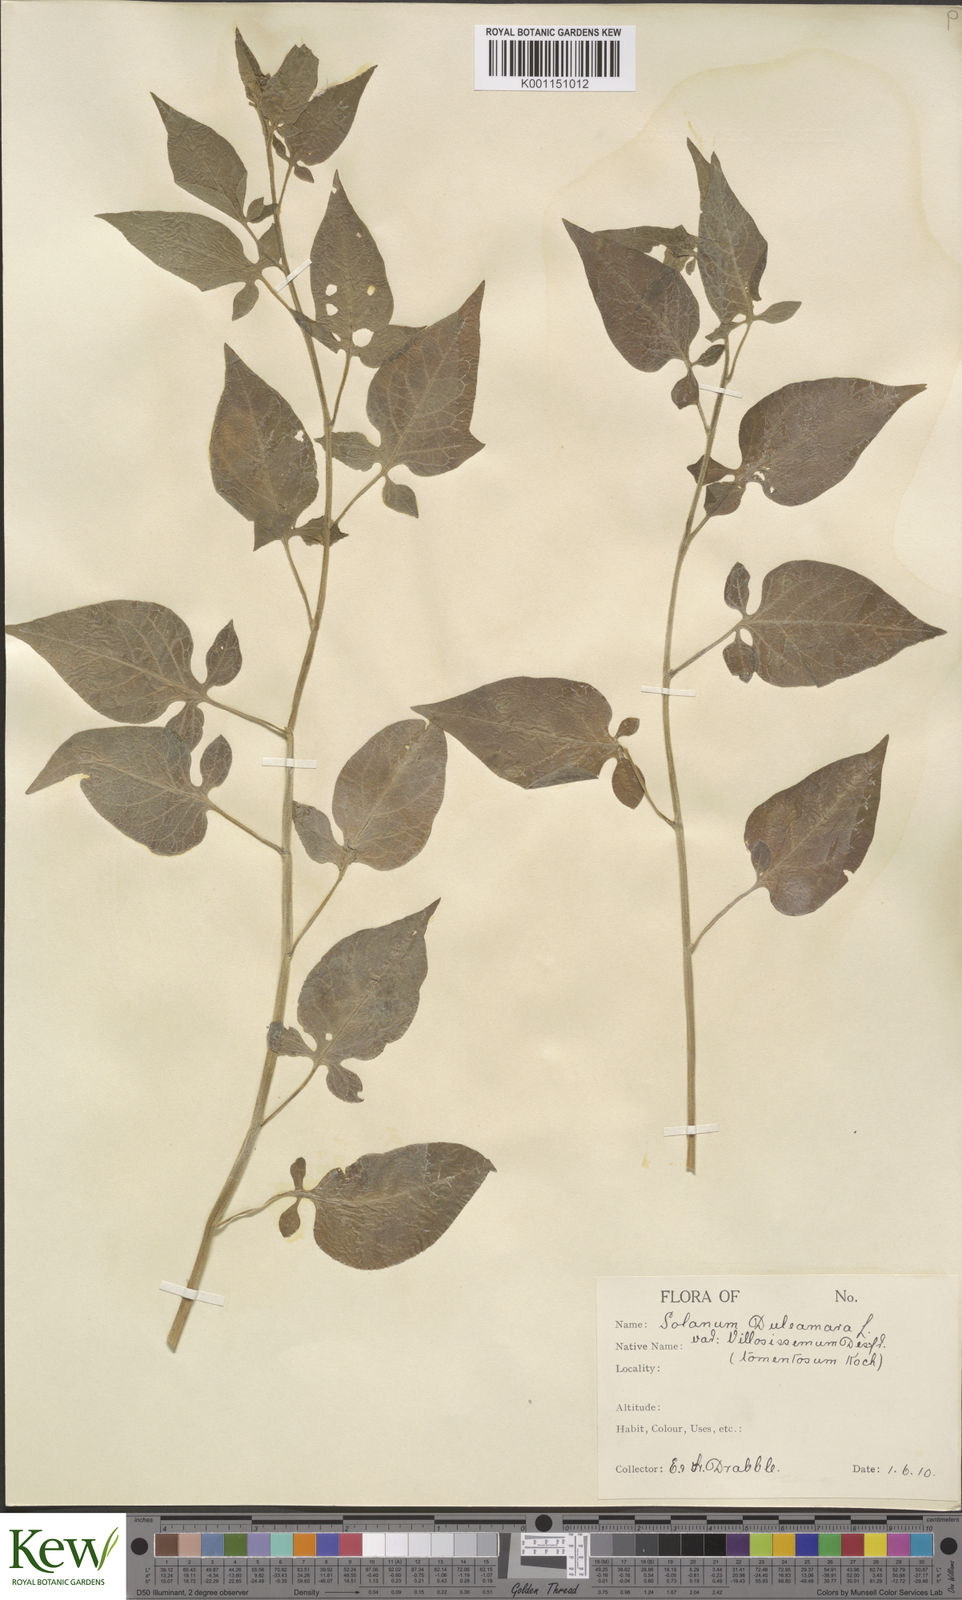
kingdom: Plantae
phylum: Tracheophyta
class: Magnoliopsida
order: Solanales
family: Solanaceae
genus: Solanum
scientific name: Solanum dulcamara
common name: Climbing nightshade
